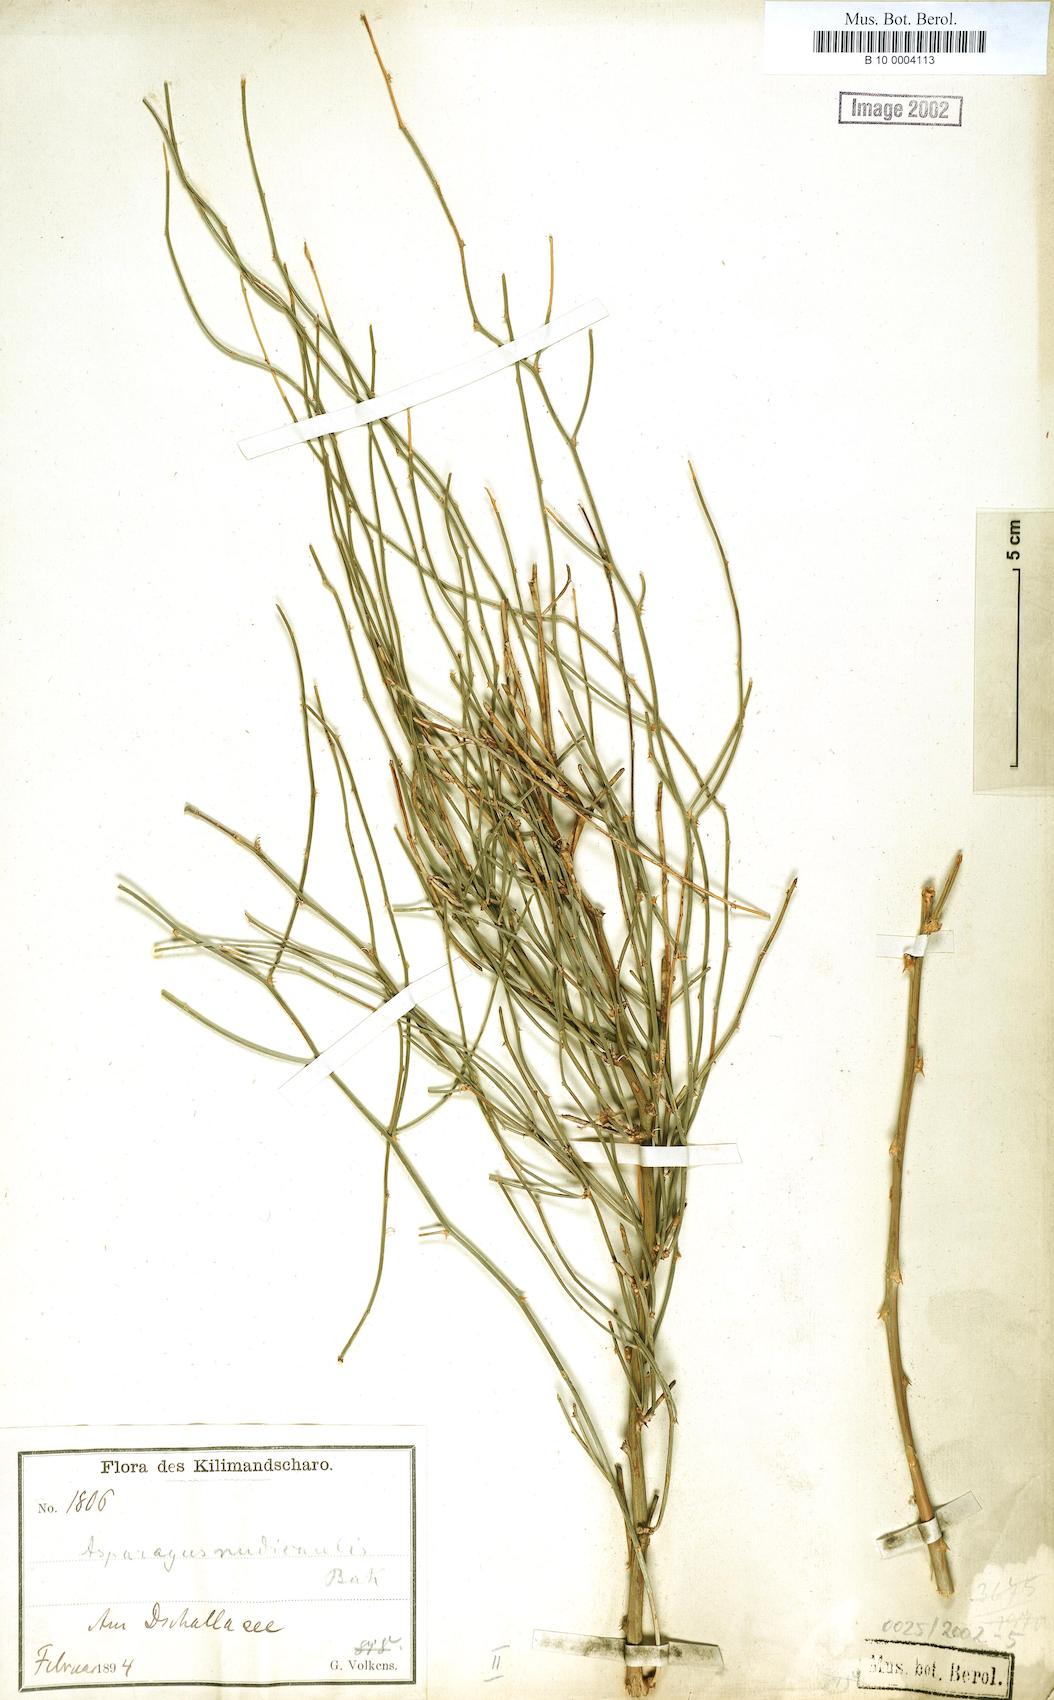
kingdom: Plantae
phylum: Tracheophyta
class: Liliopsida
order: Liliales
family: Liliaceae
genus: Asparagus
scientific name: Asparagus
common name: Asparagus
